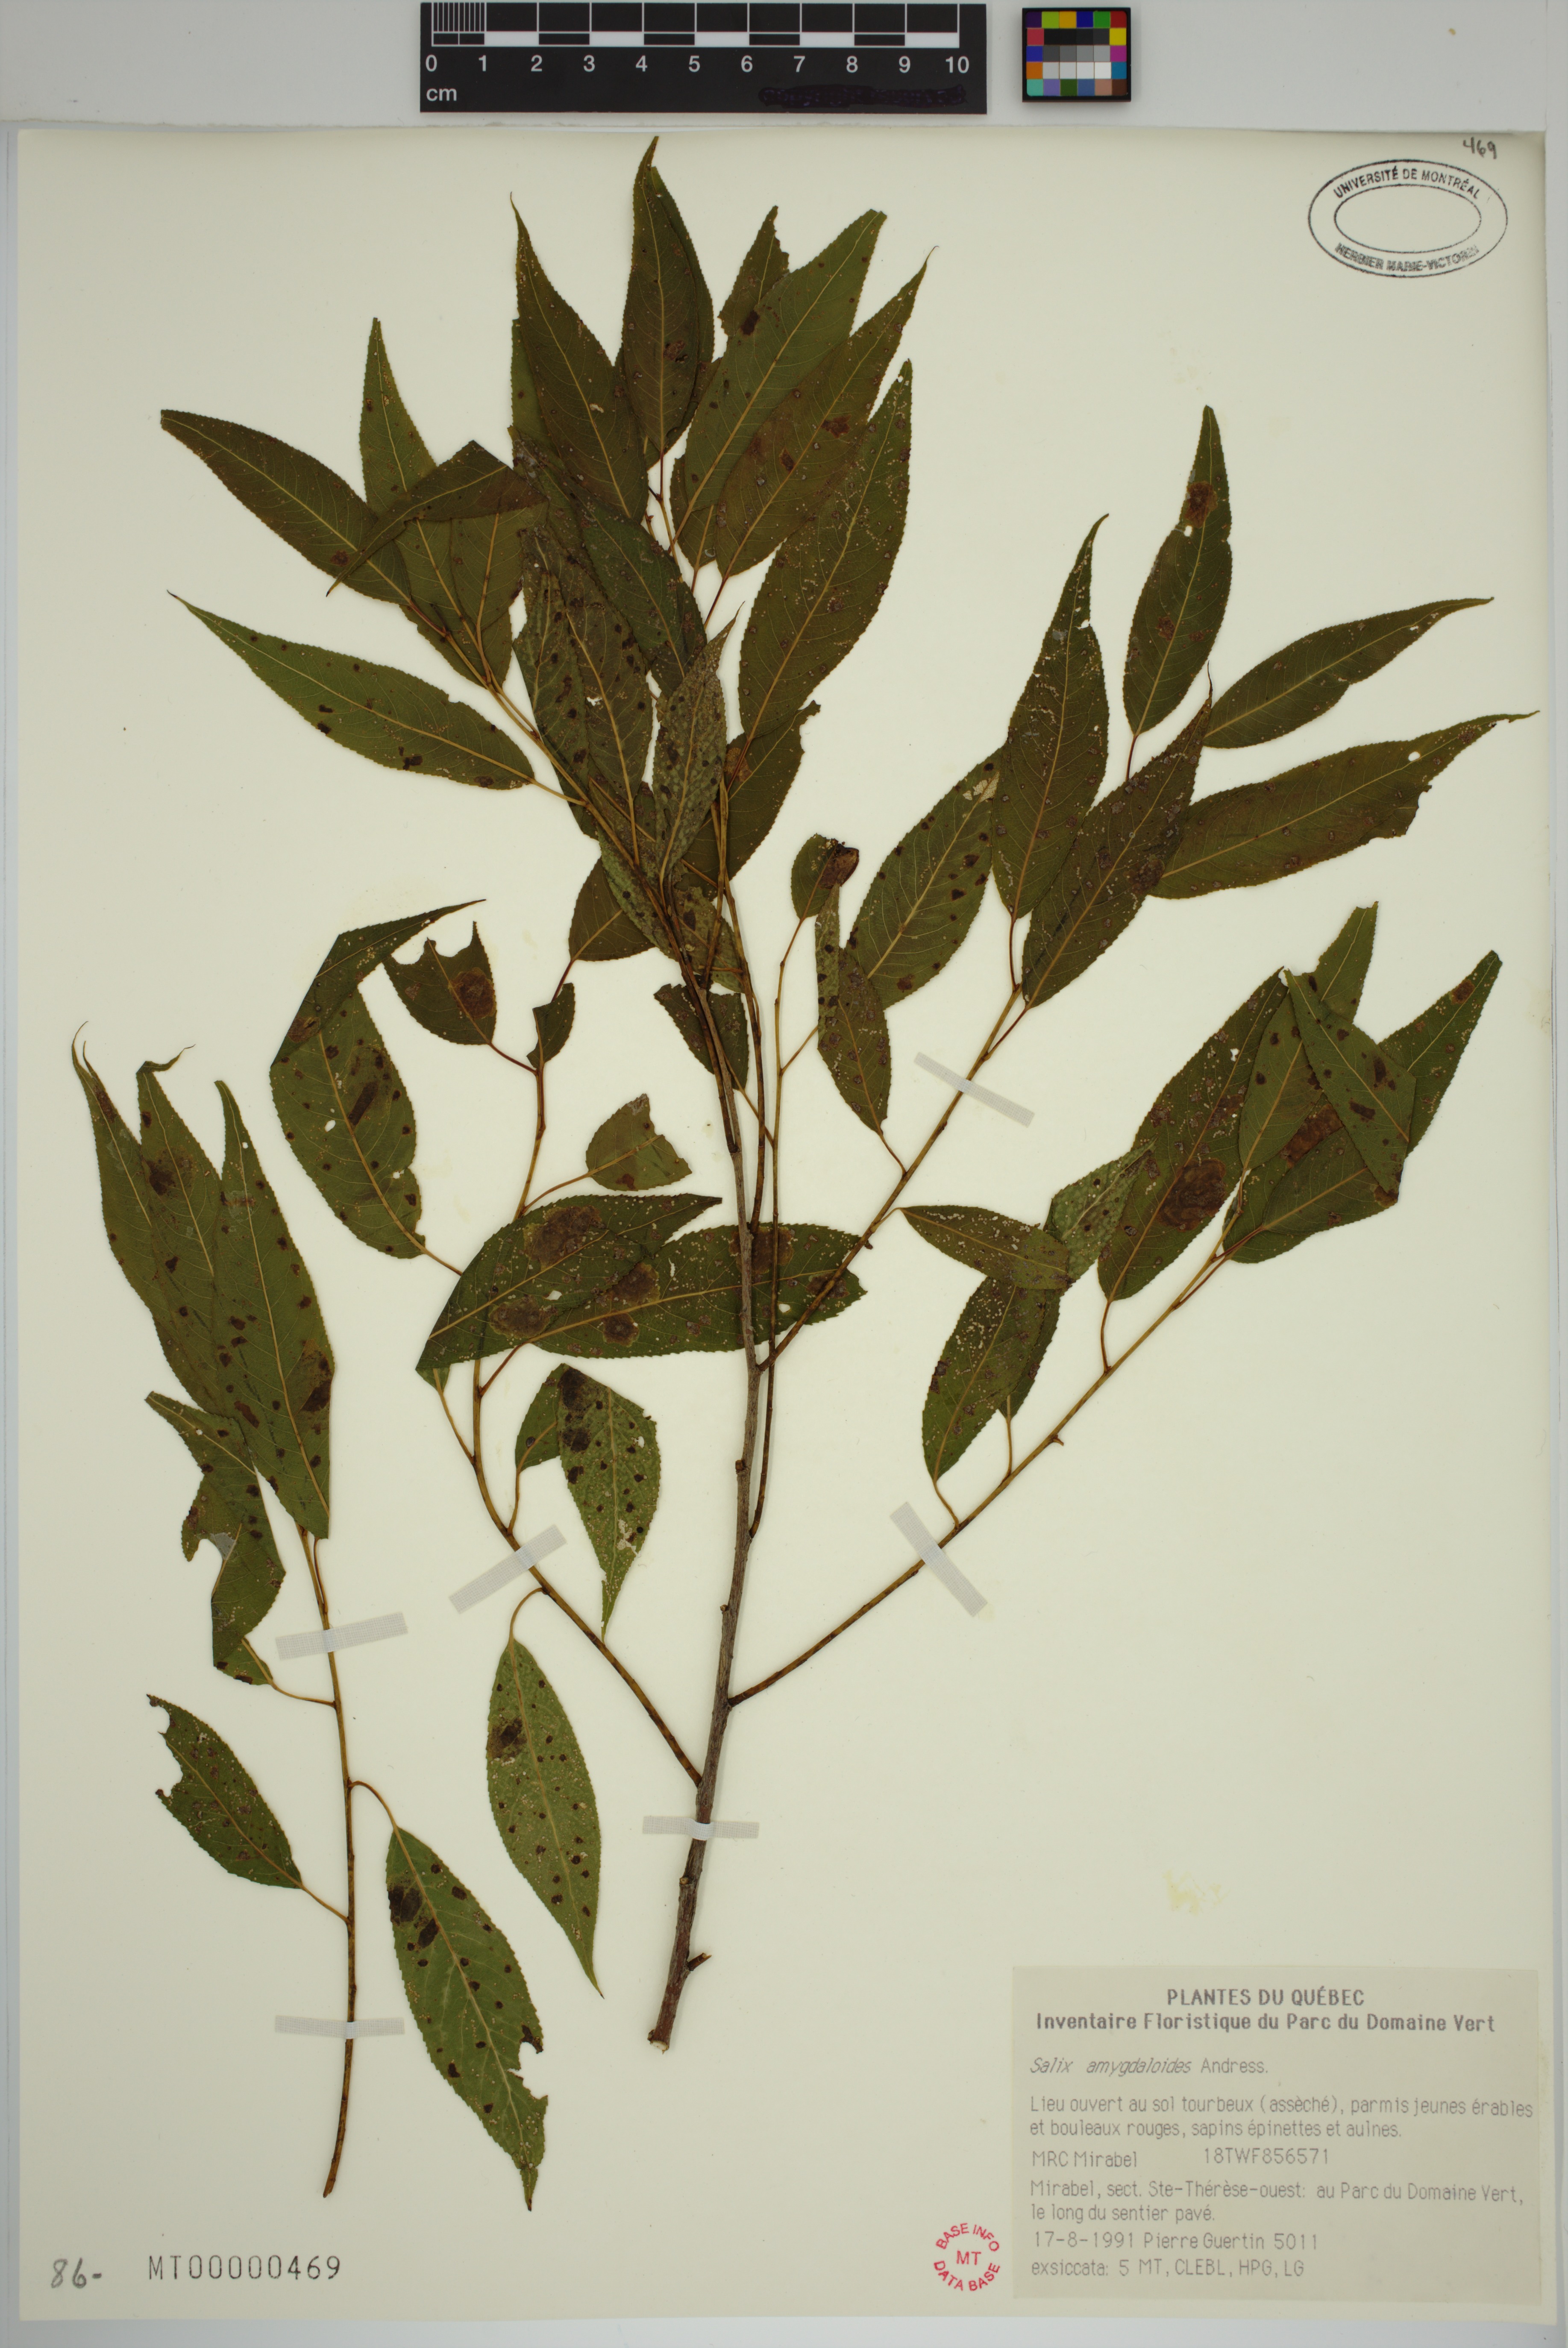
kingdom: Plantae
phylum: Tracheophyta
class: Magnoliopsida
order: Malpighiales
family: Salicaceae
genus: Salix
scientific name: Salix amygdaloides
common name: Peach leaf willow
